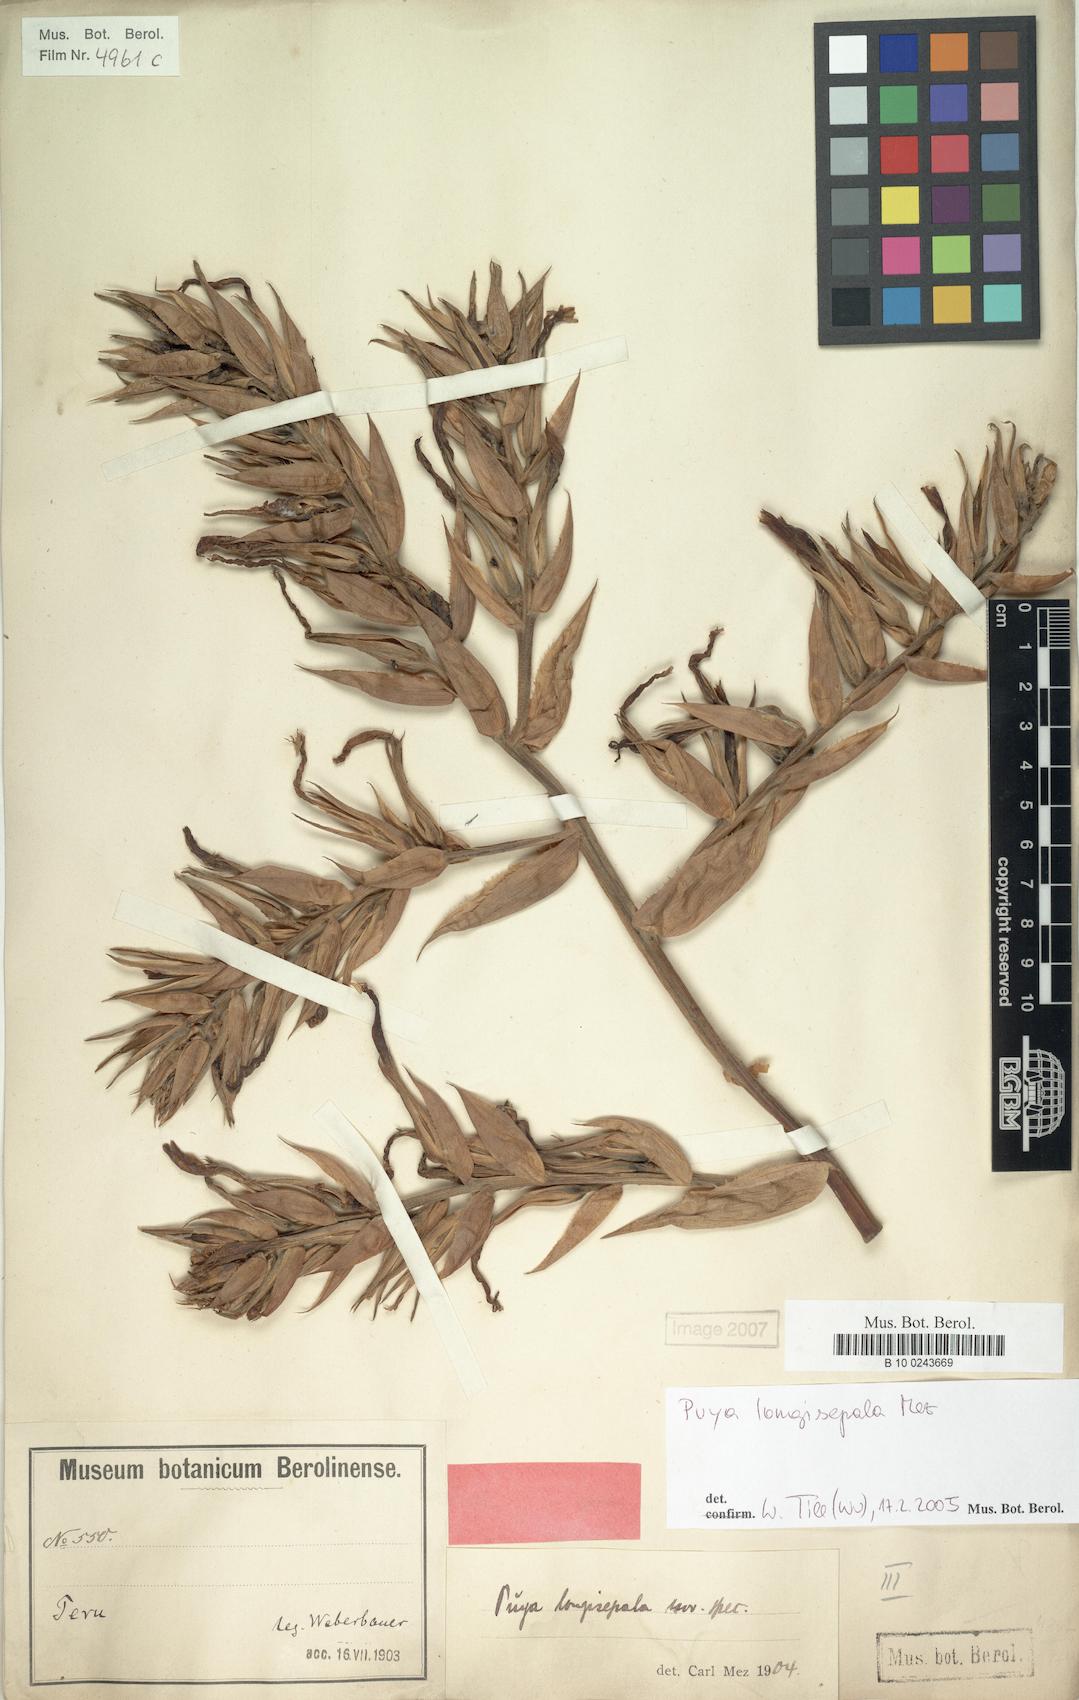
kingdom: Plantae
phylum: Tracheophyta
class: Liliopsida
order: Poales
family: Bromeliaceae
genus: Puya
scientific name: Puya longisepala
